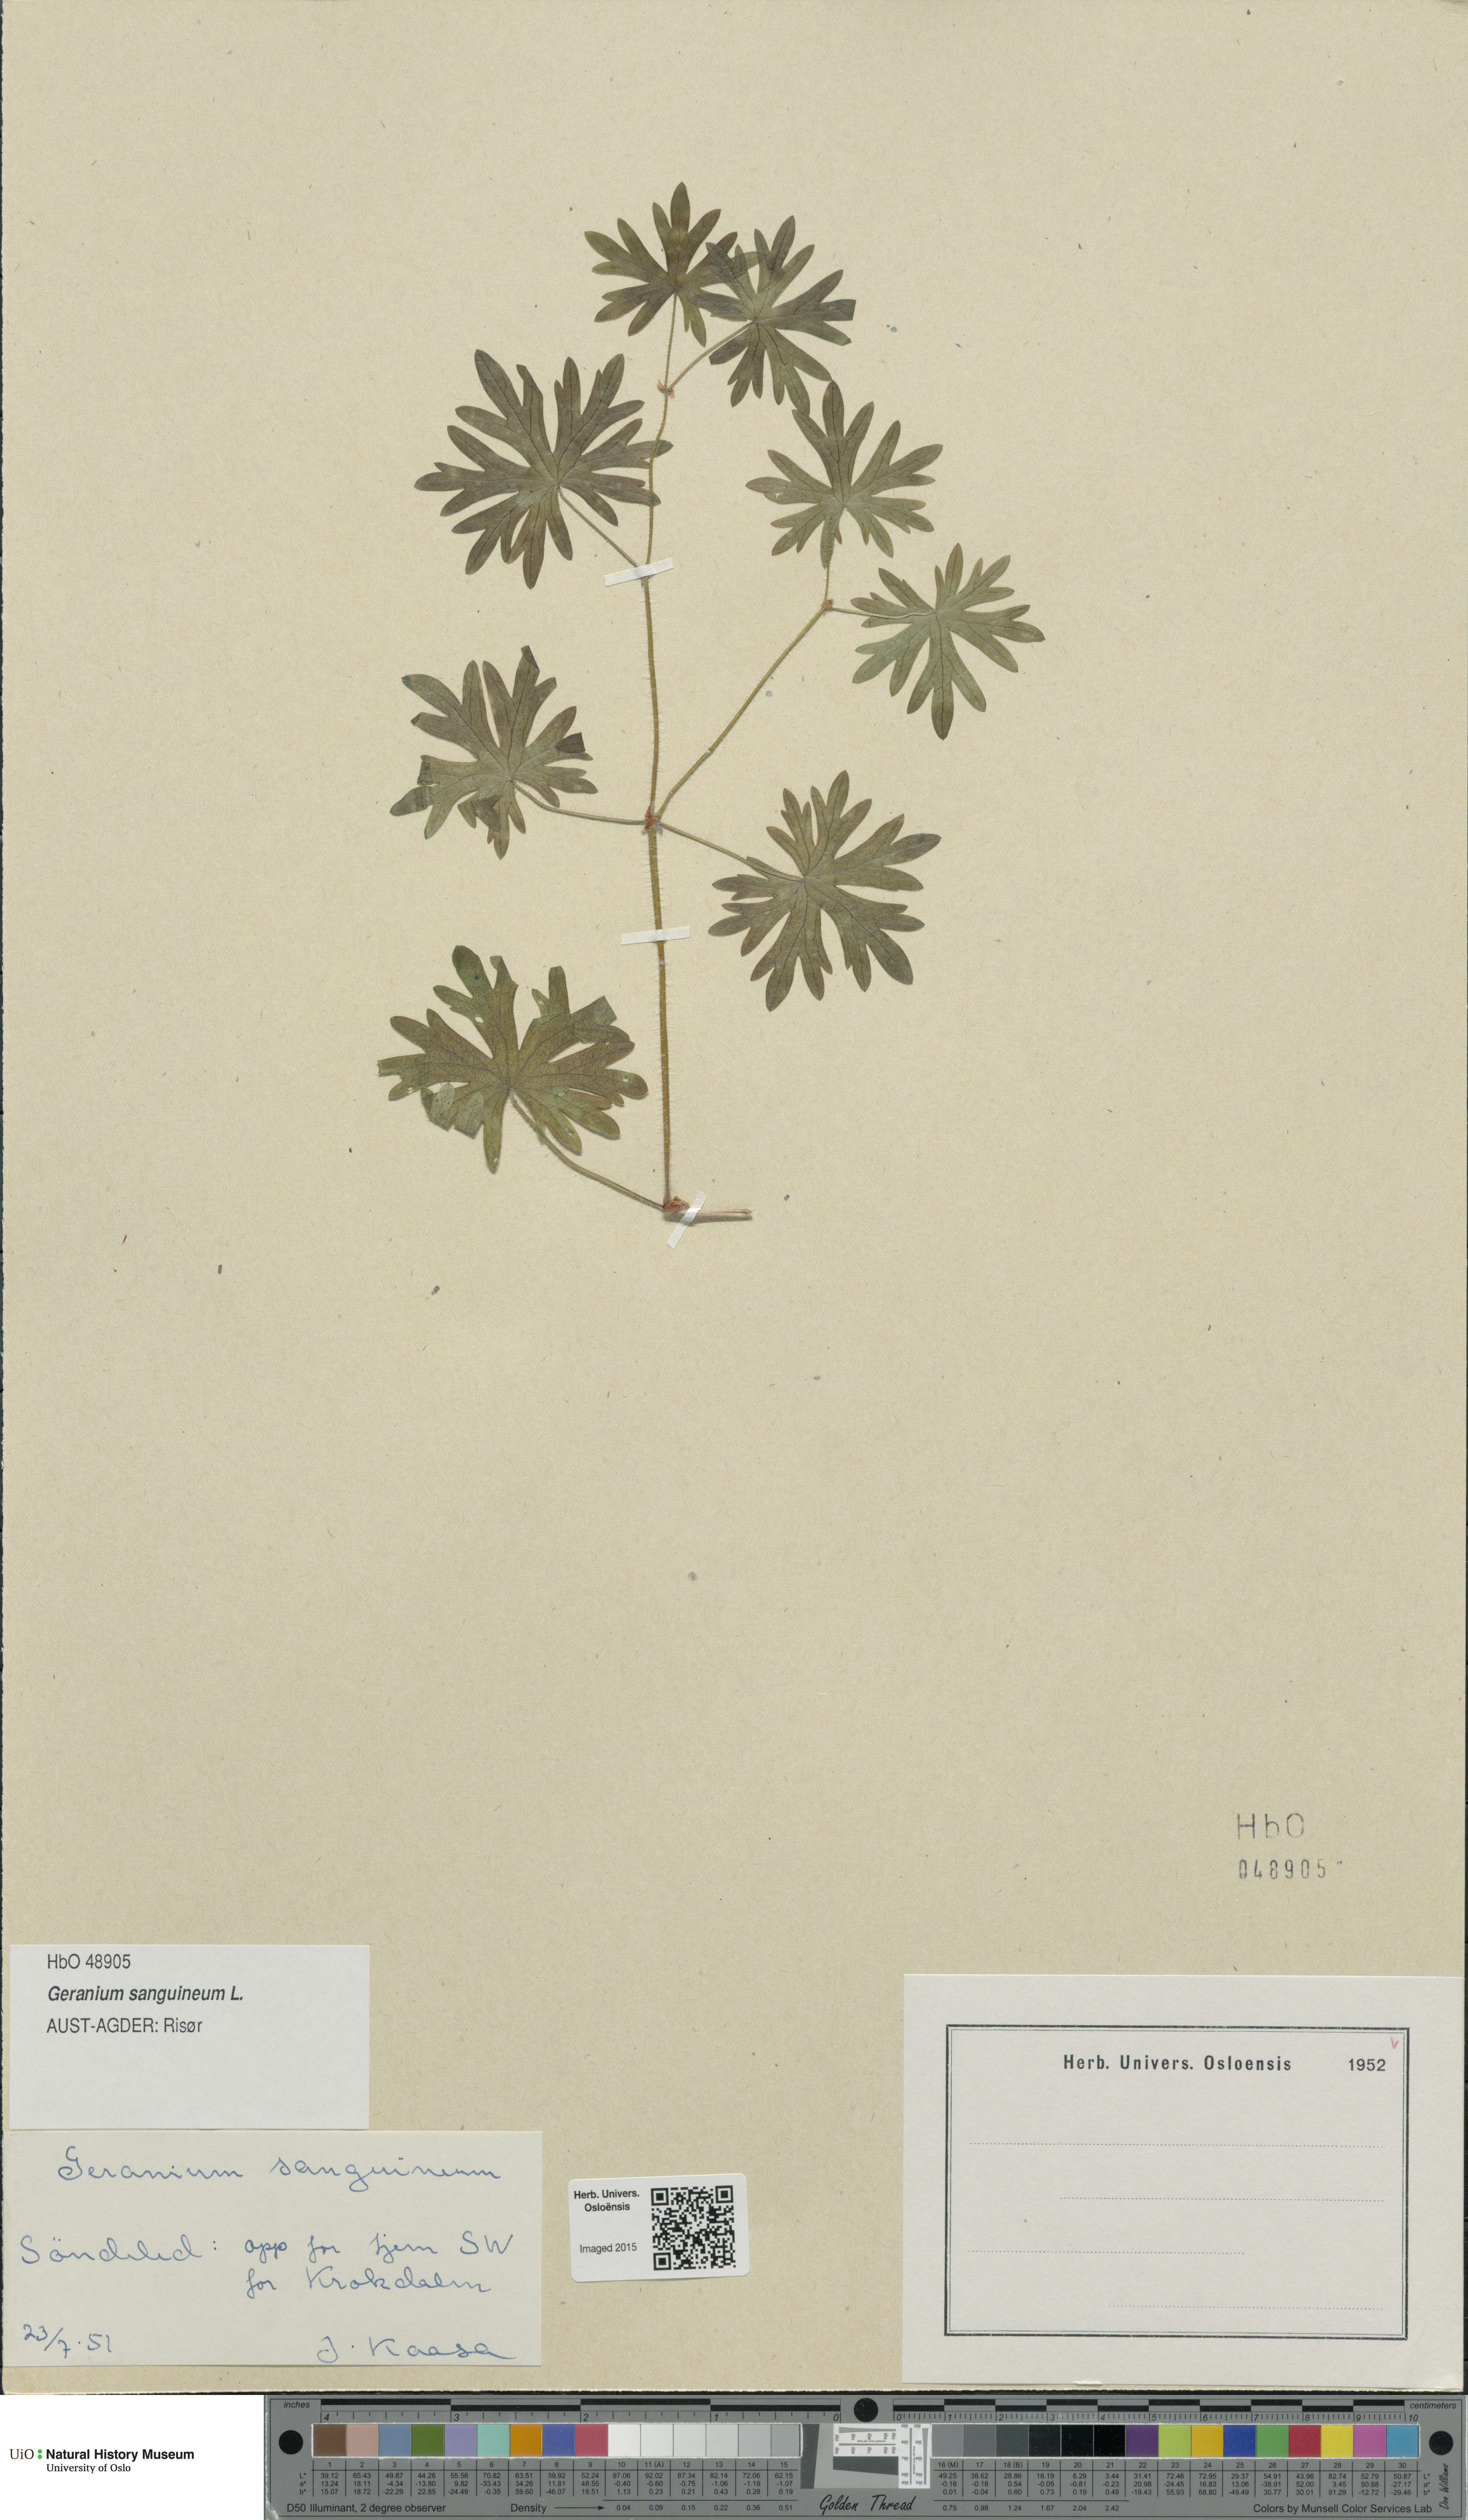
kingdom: Plantae
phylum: Tracheophyta
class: Magnoliopsida
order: Geraniales
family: Geraniaceae
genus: Geranium
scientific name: Geranium sanguineum
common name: Bloody crane's-bill
